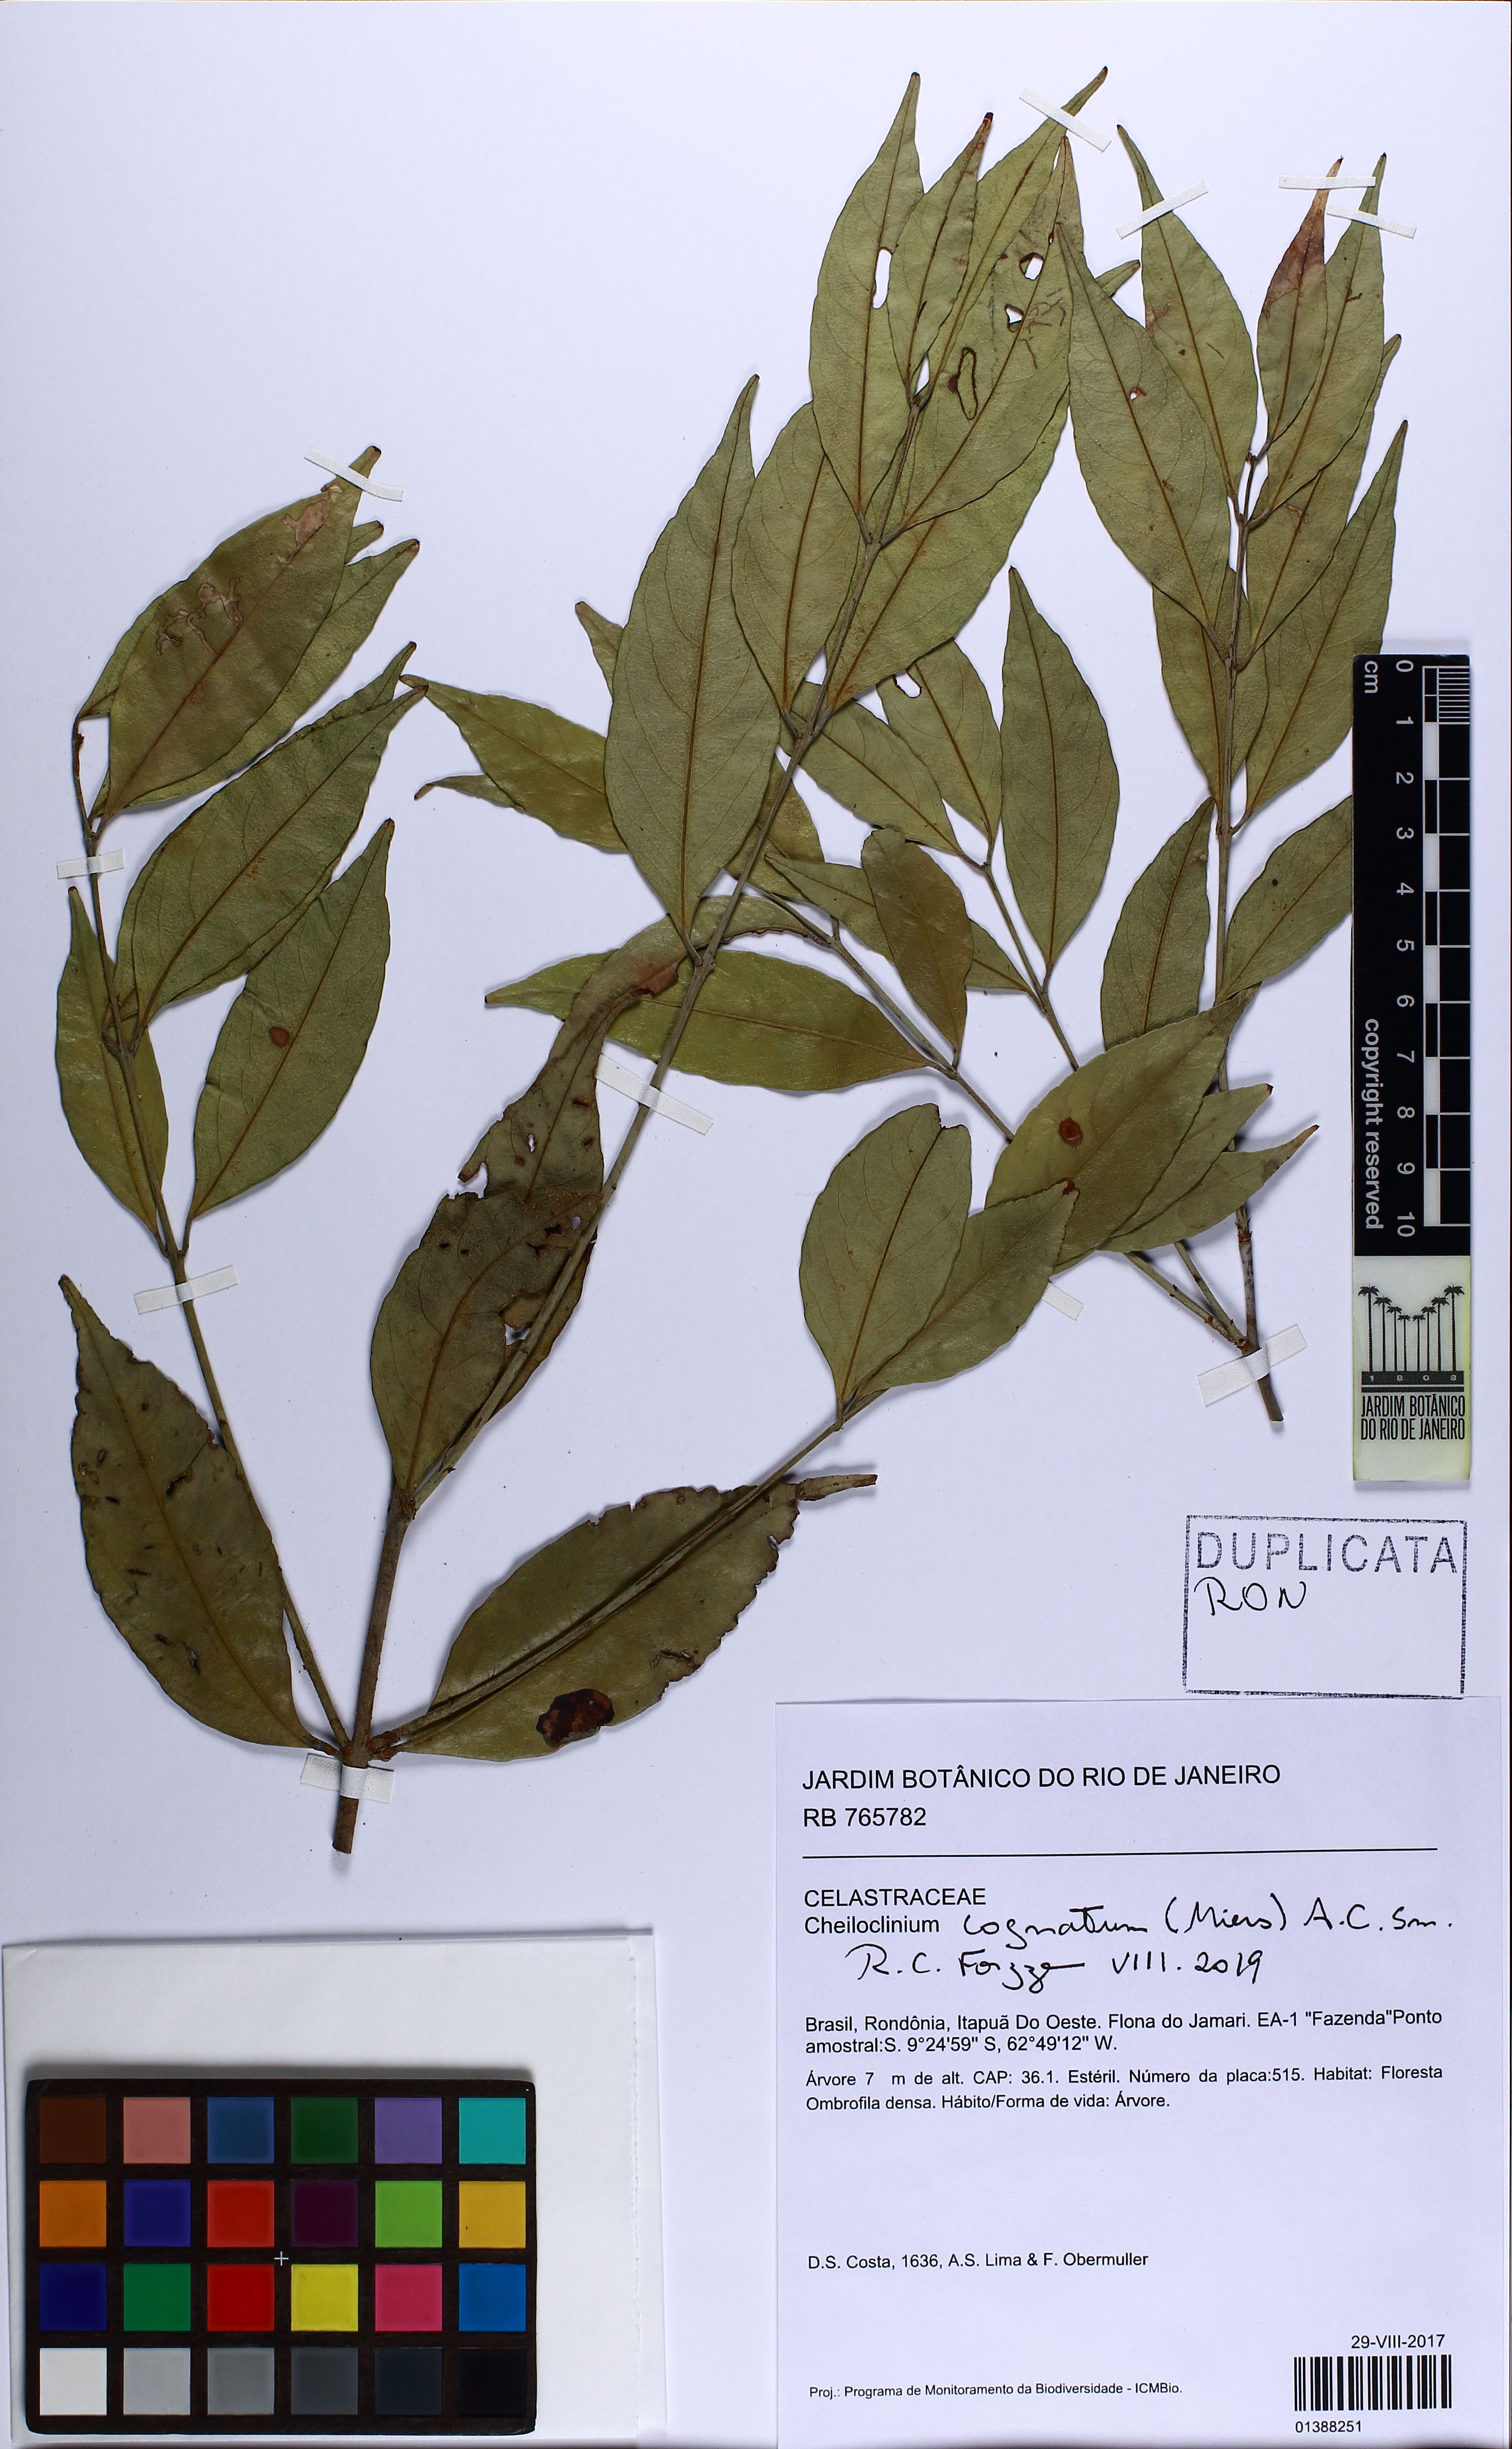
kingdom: Plantae
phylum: Tracheophyta
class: Magnoliopsida
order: Celastrales
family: Celastraceae
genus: Cheiloclinium
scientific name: Cheiloclinium cognatum
